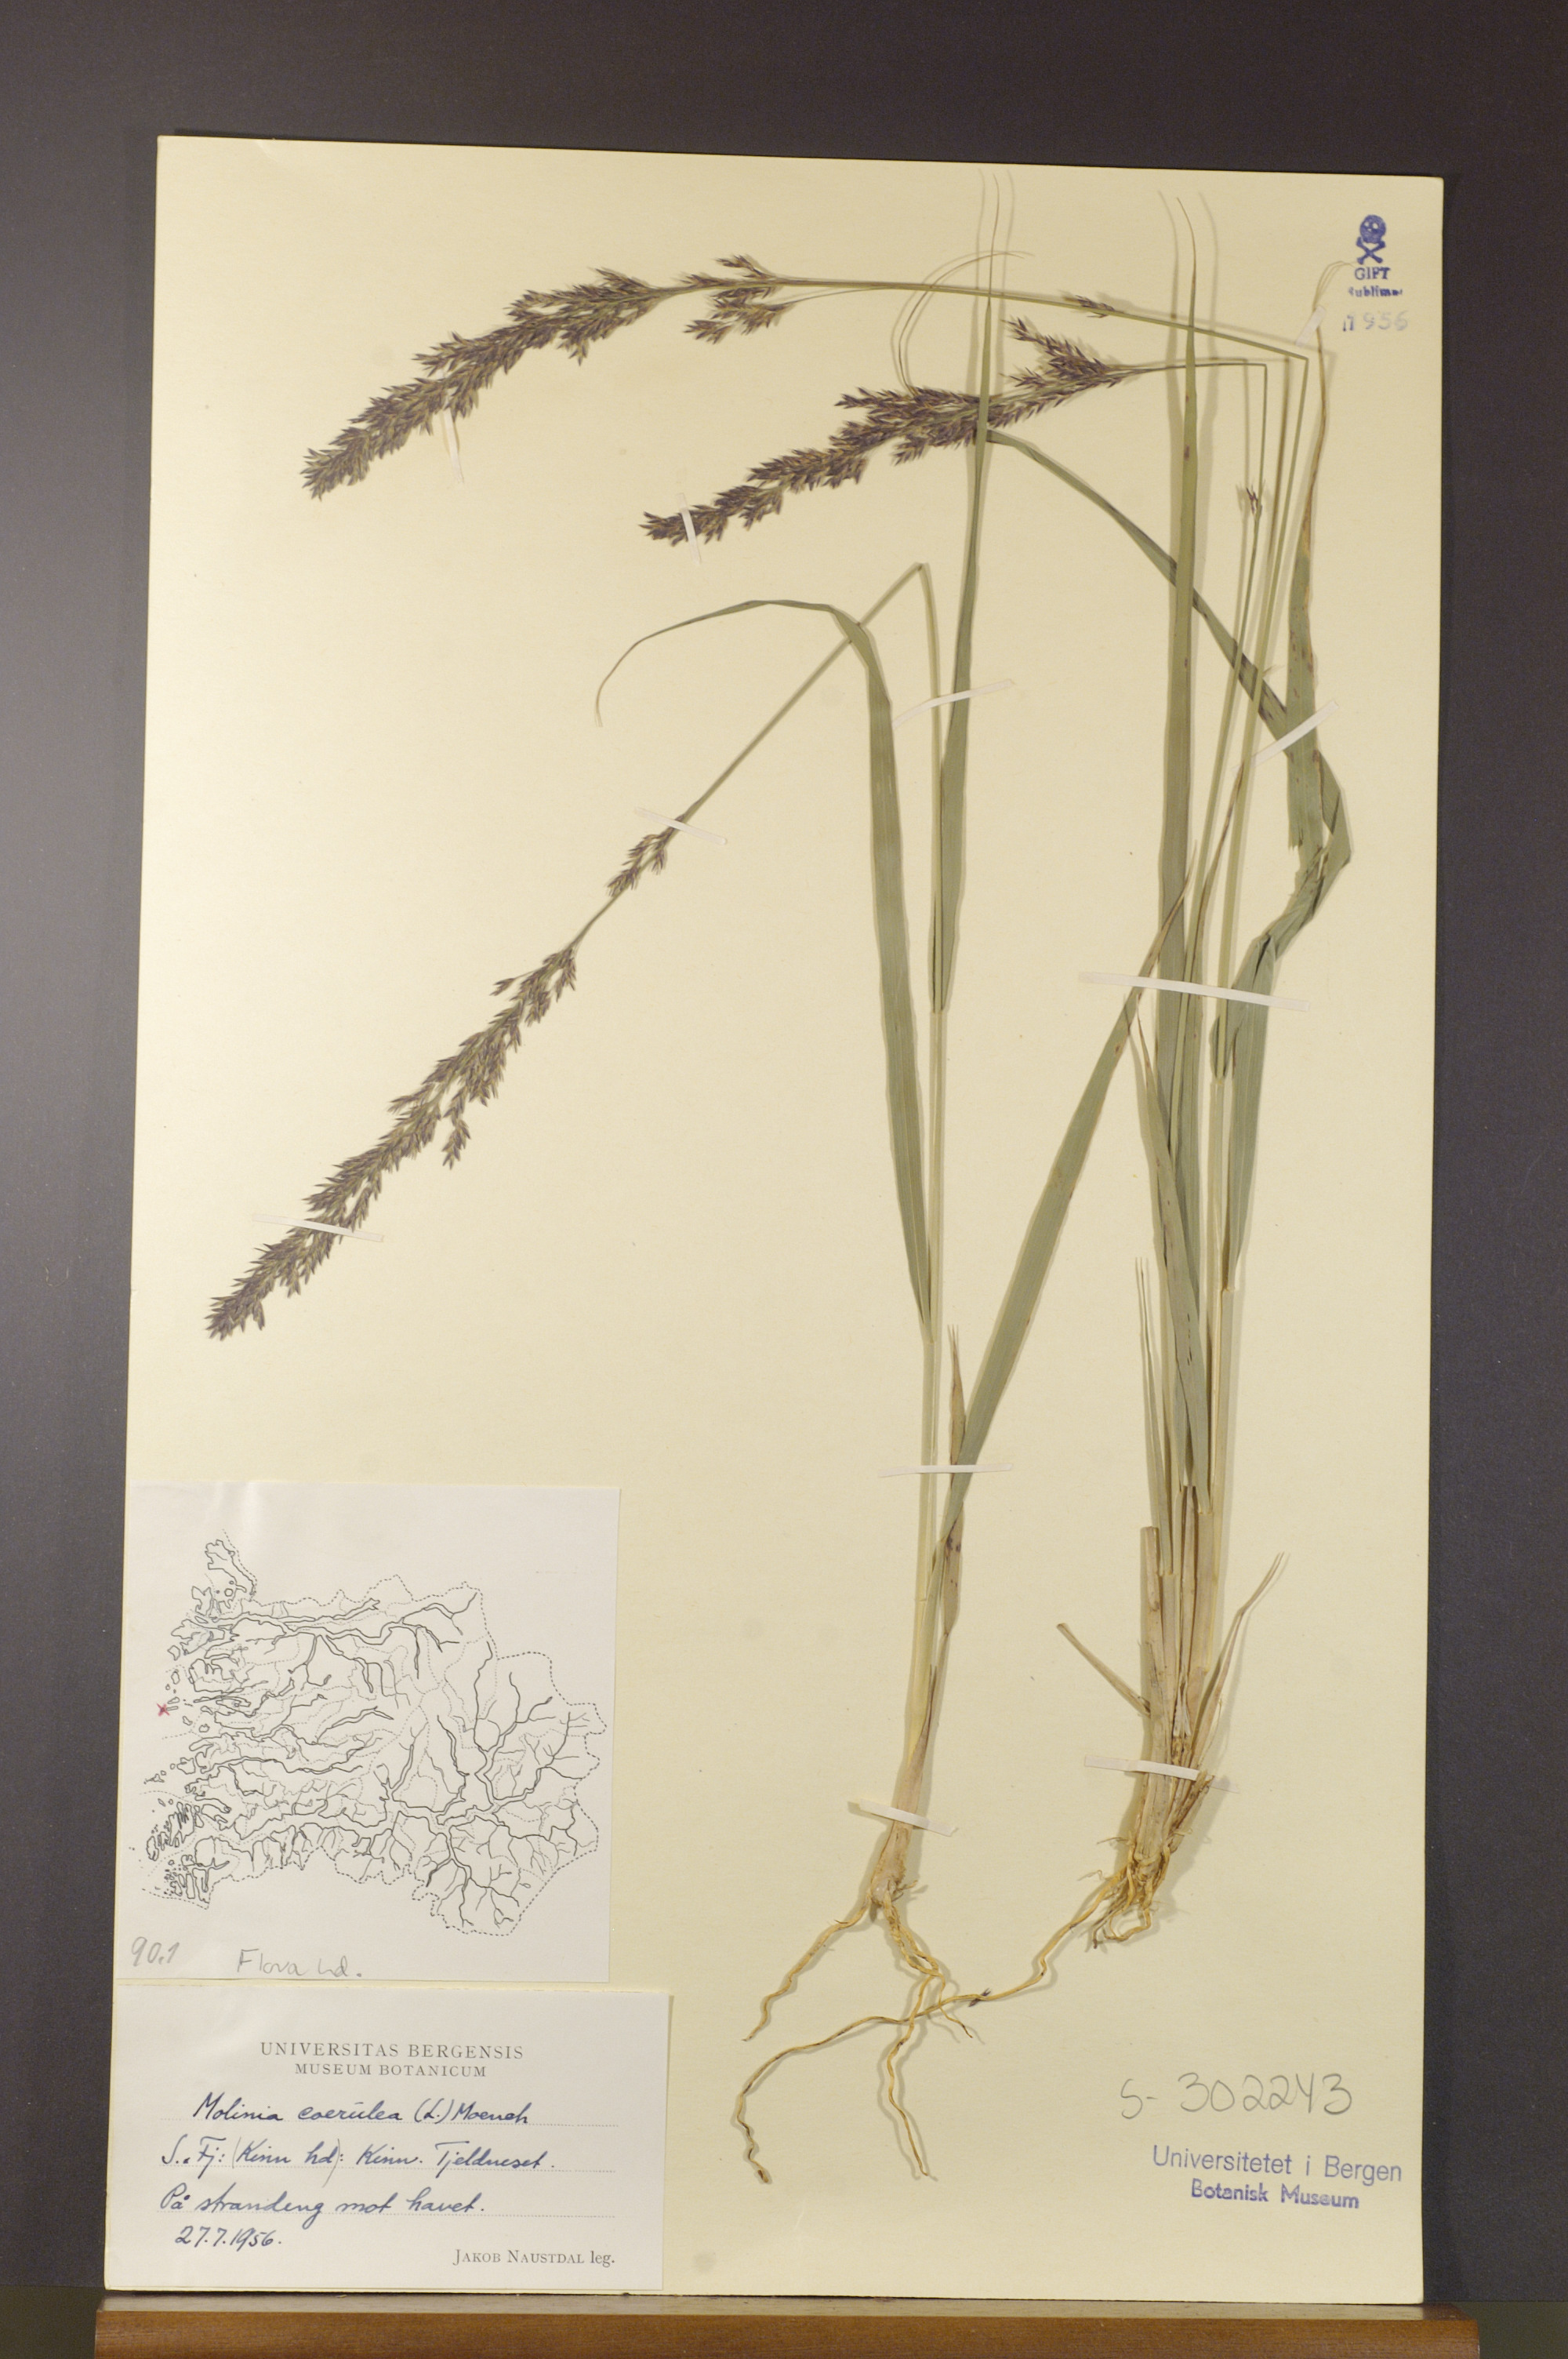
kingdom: Plantae
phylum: Tracheophyta
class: Liliopsida
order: Poales
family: Poaceae
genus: Molinia
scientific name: Molinia caerulea
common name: Purple moor-grass
